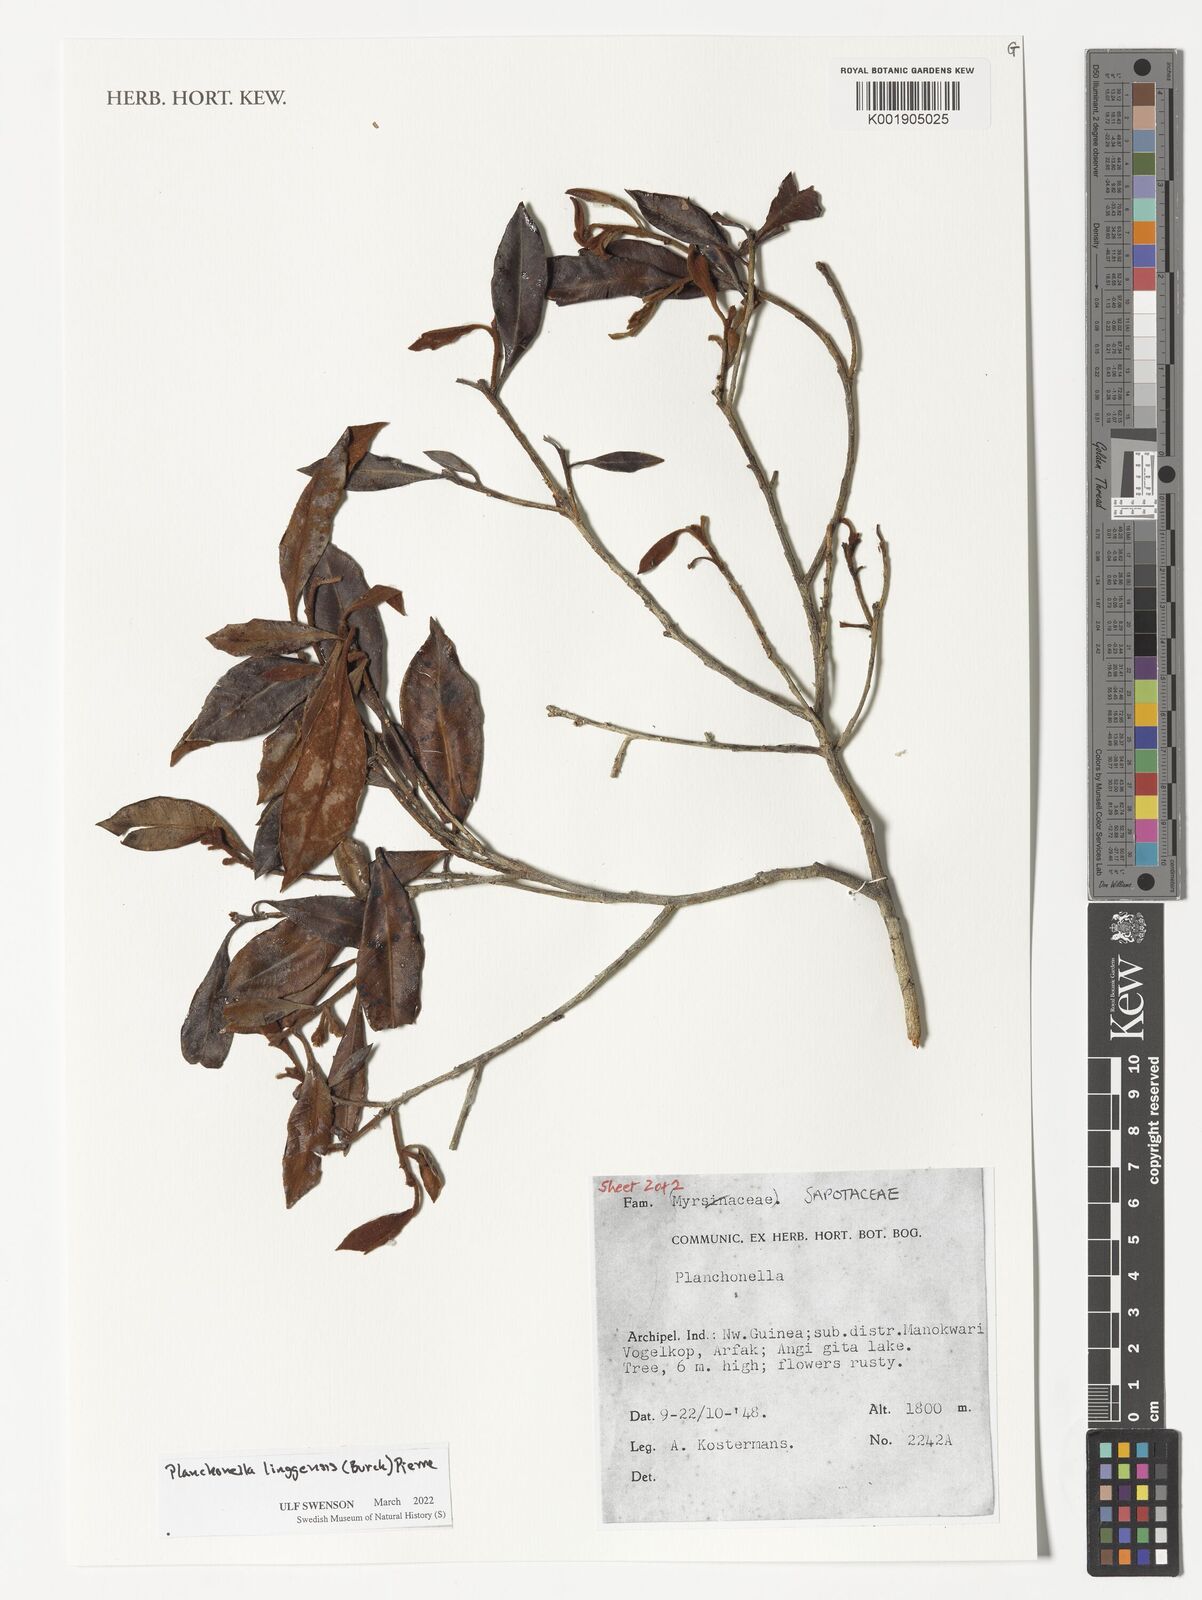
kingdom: Plantae
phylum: Tracheophyta
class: Magnoliopsida
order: Ericales
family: Sapotaceae
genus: Planchonella
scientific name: Planchonella chartacea
